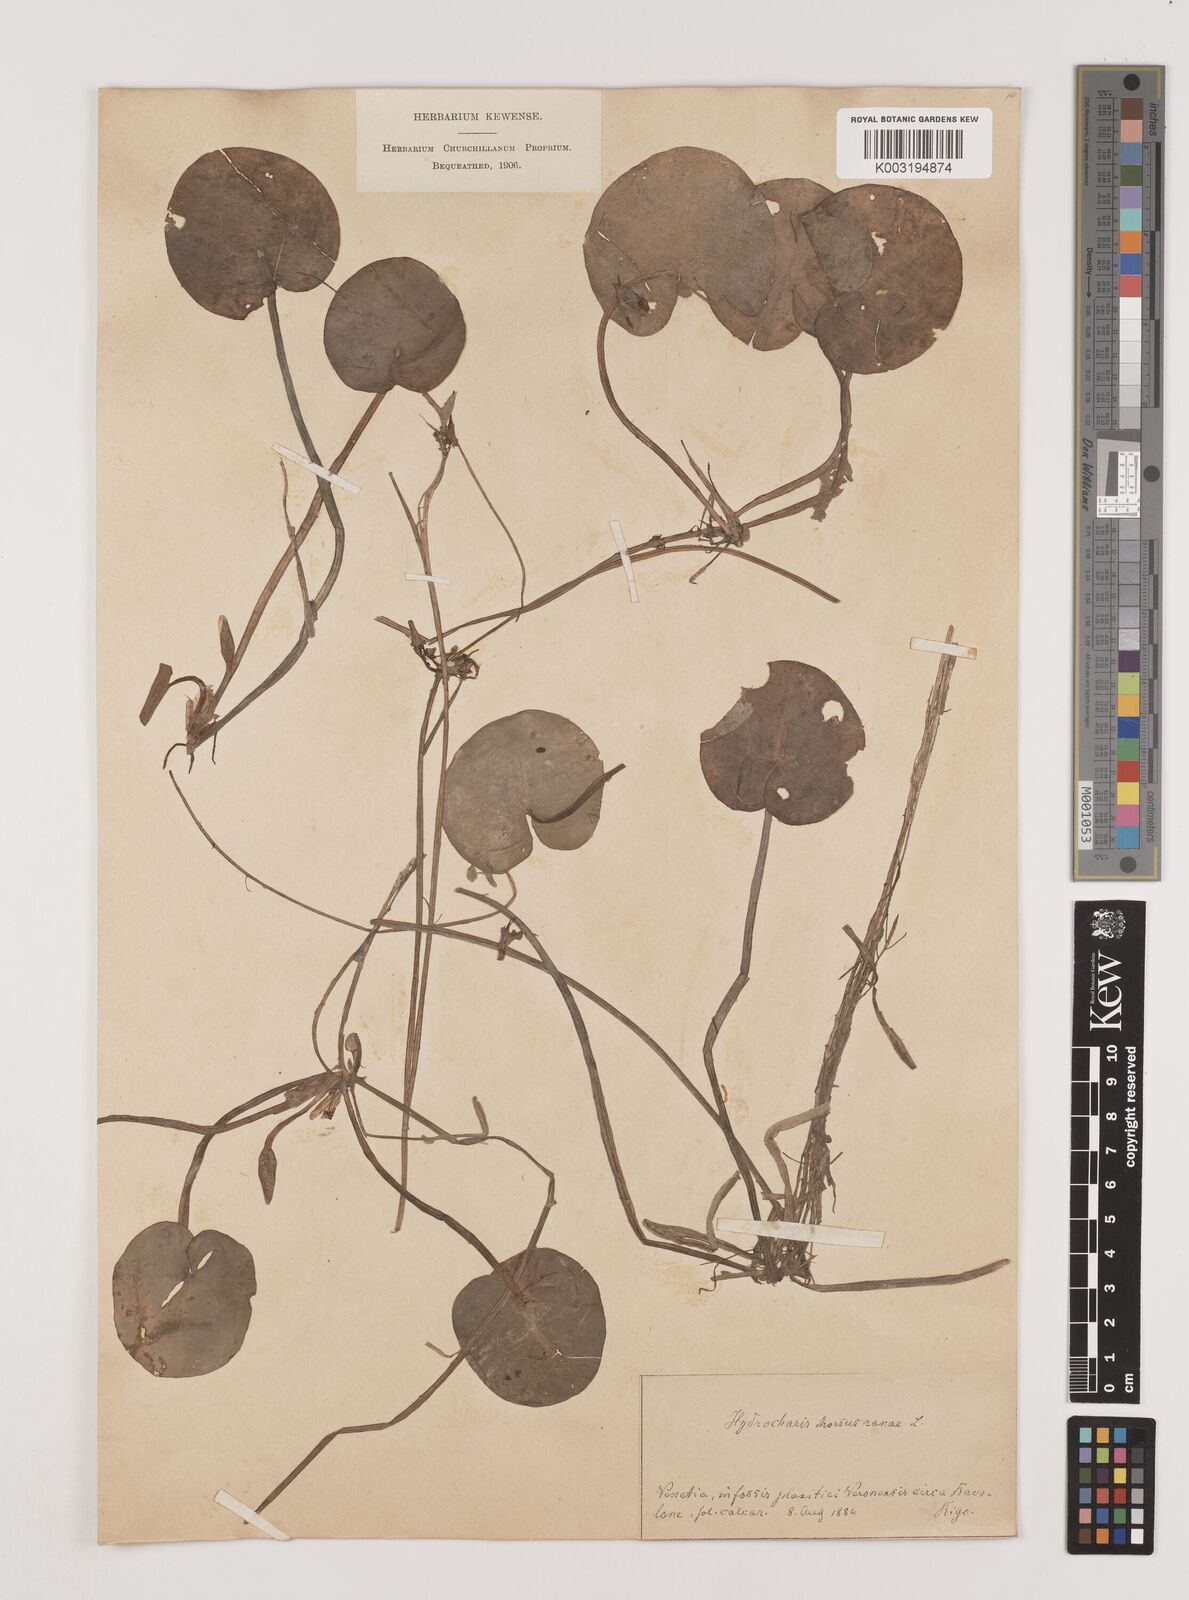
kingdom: Plantae
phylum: Tracheophyta
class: Liliopsida
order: Alismatales
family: Hydrocharitaceae
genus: Hydrocharis
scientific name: Hydrocharis morsus-ranae
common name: Frogbit
